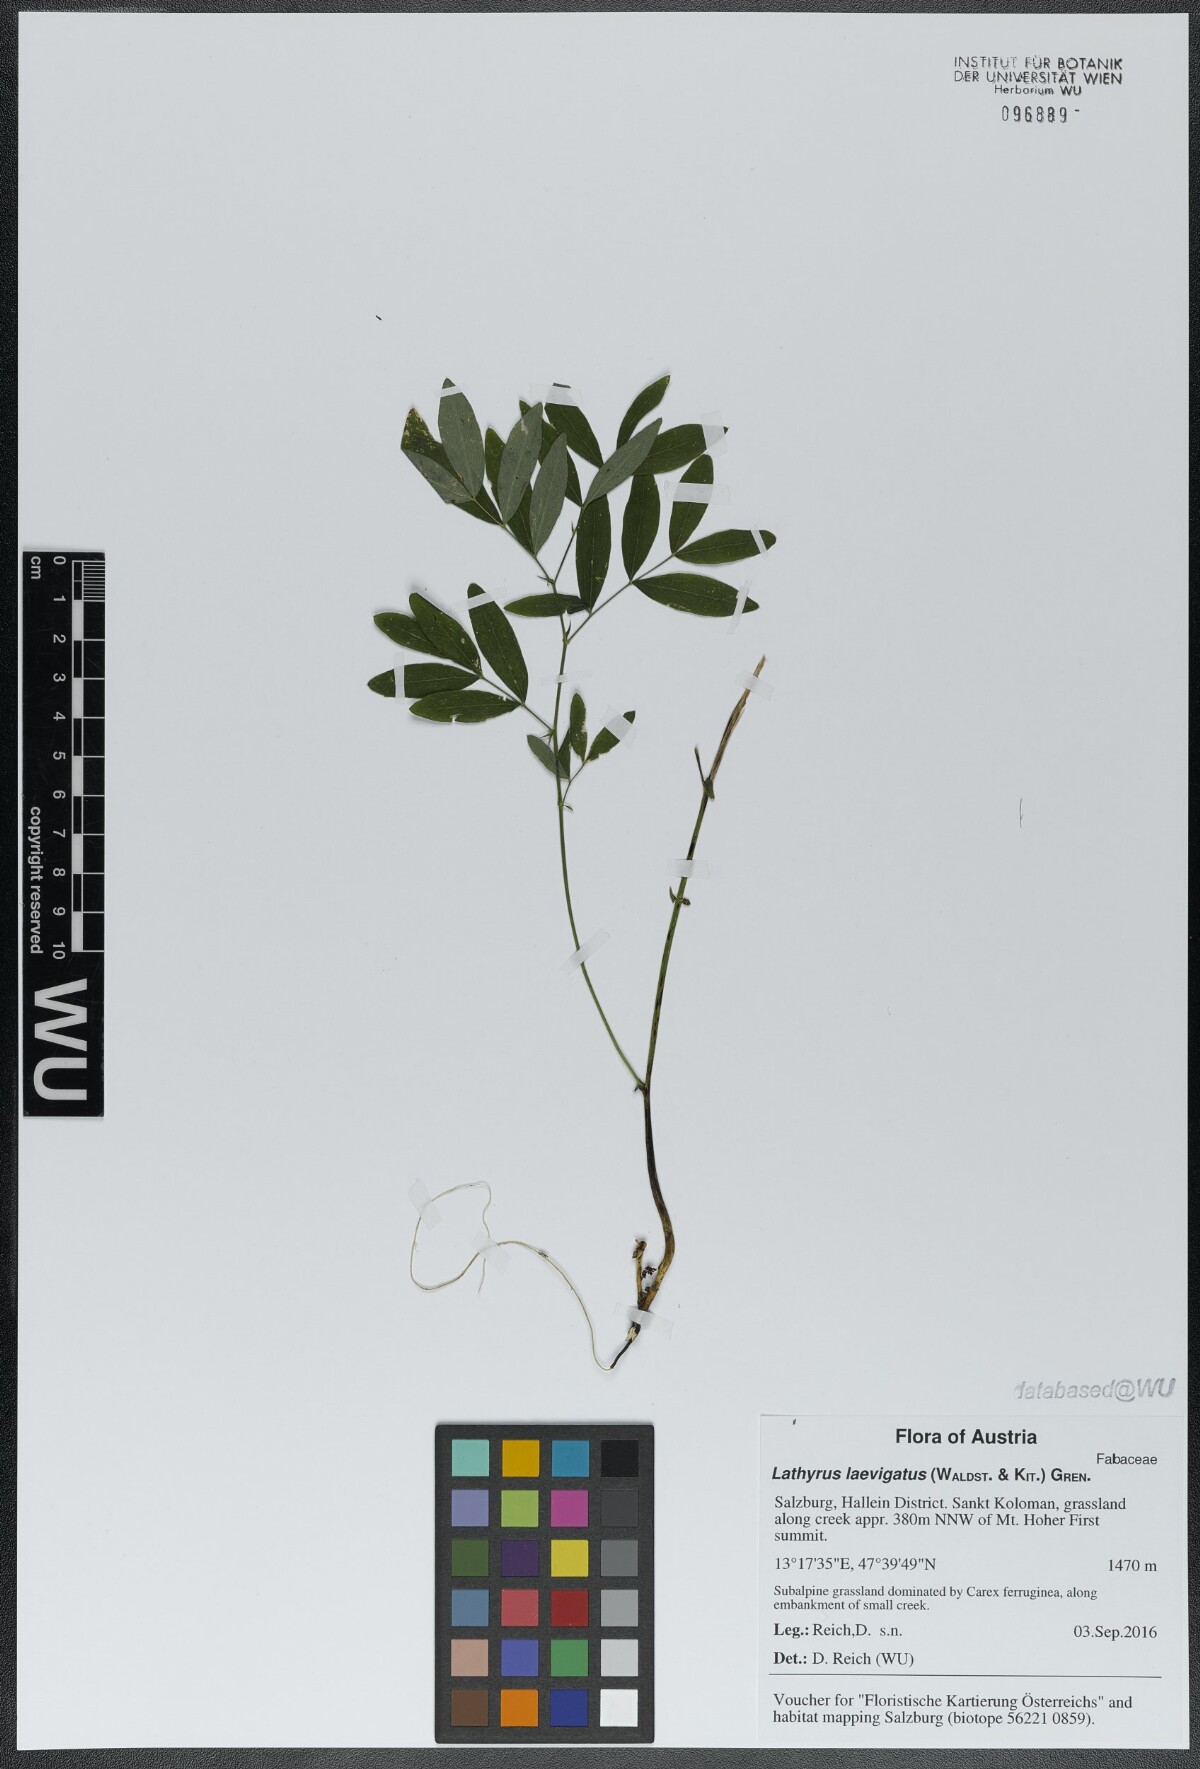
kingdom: Plantae
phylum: Tracheophyta
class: Magnoliopsida
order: Fabales
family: Fabaceae
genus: Lathyrus
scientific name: Lathyrus laevigatus
